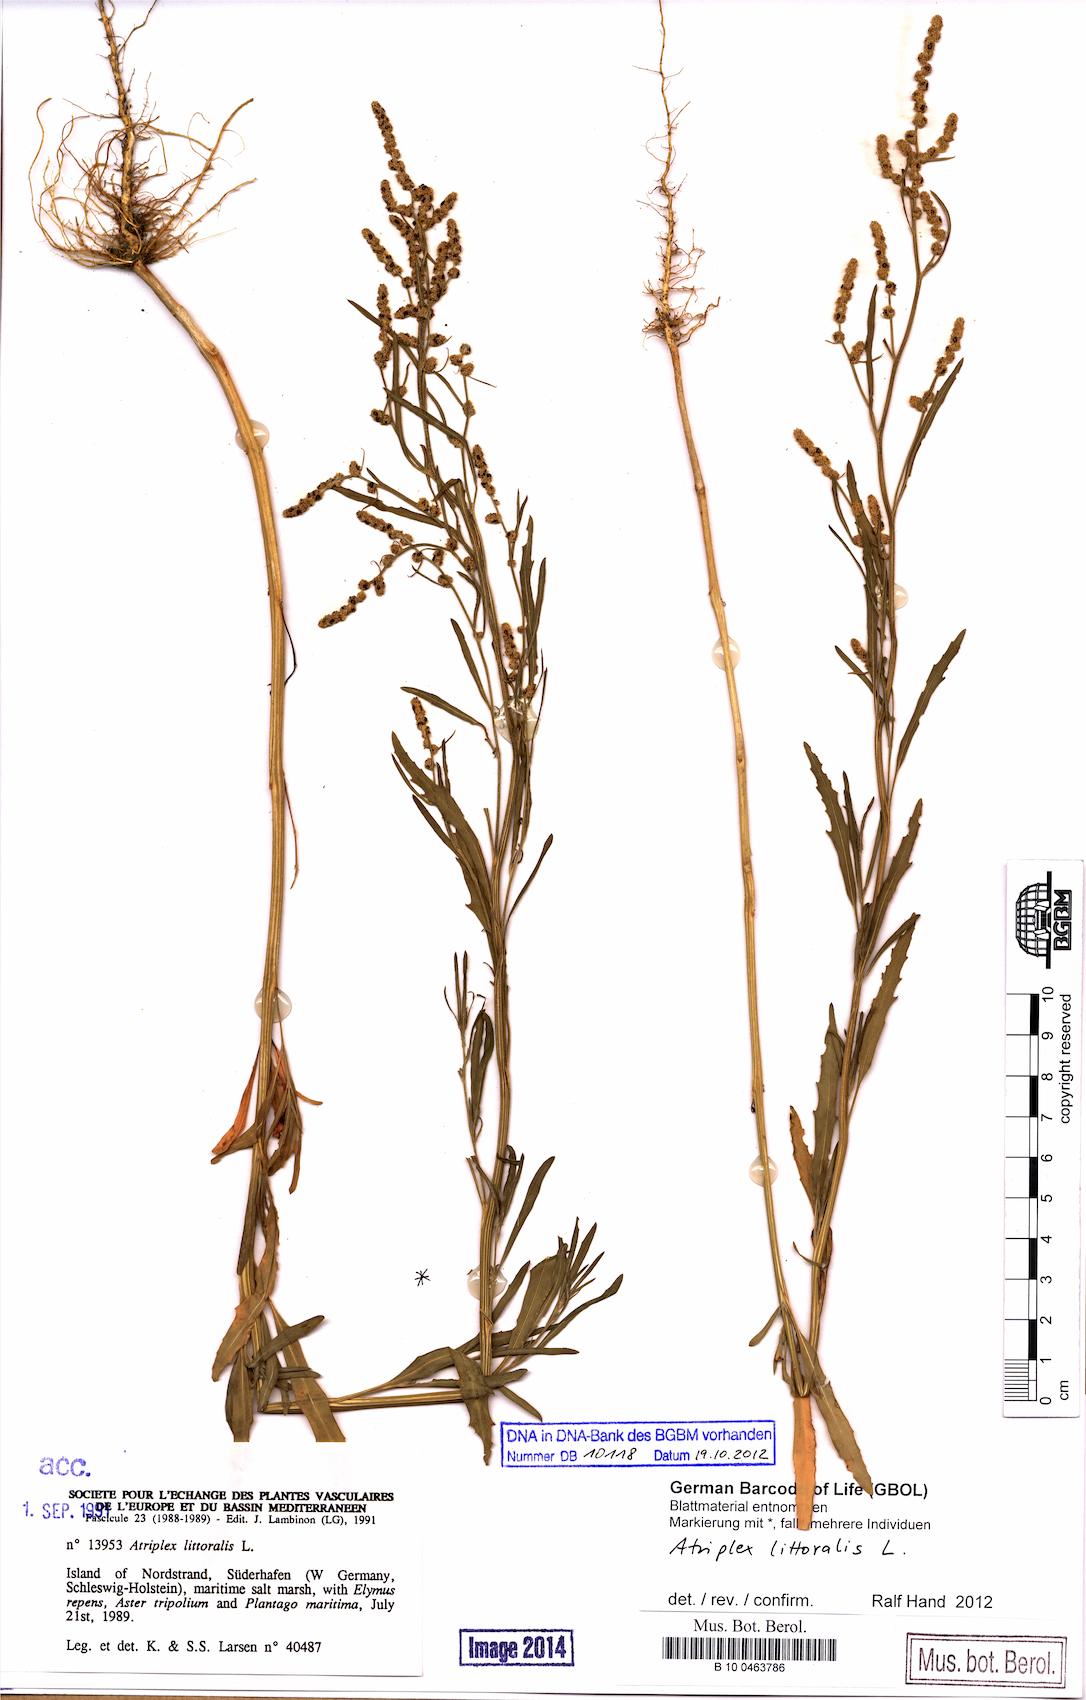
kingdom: Plantae
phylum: Tracheophyta
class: Magnoliopsida
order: Caryophyllales
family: Amaranthaceae
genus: Atriplex
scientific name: Atriplex littoralis
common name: Grass-leaved orache
